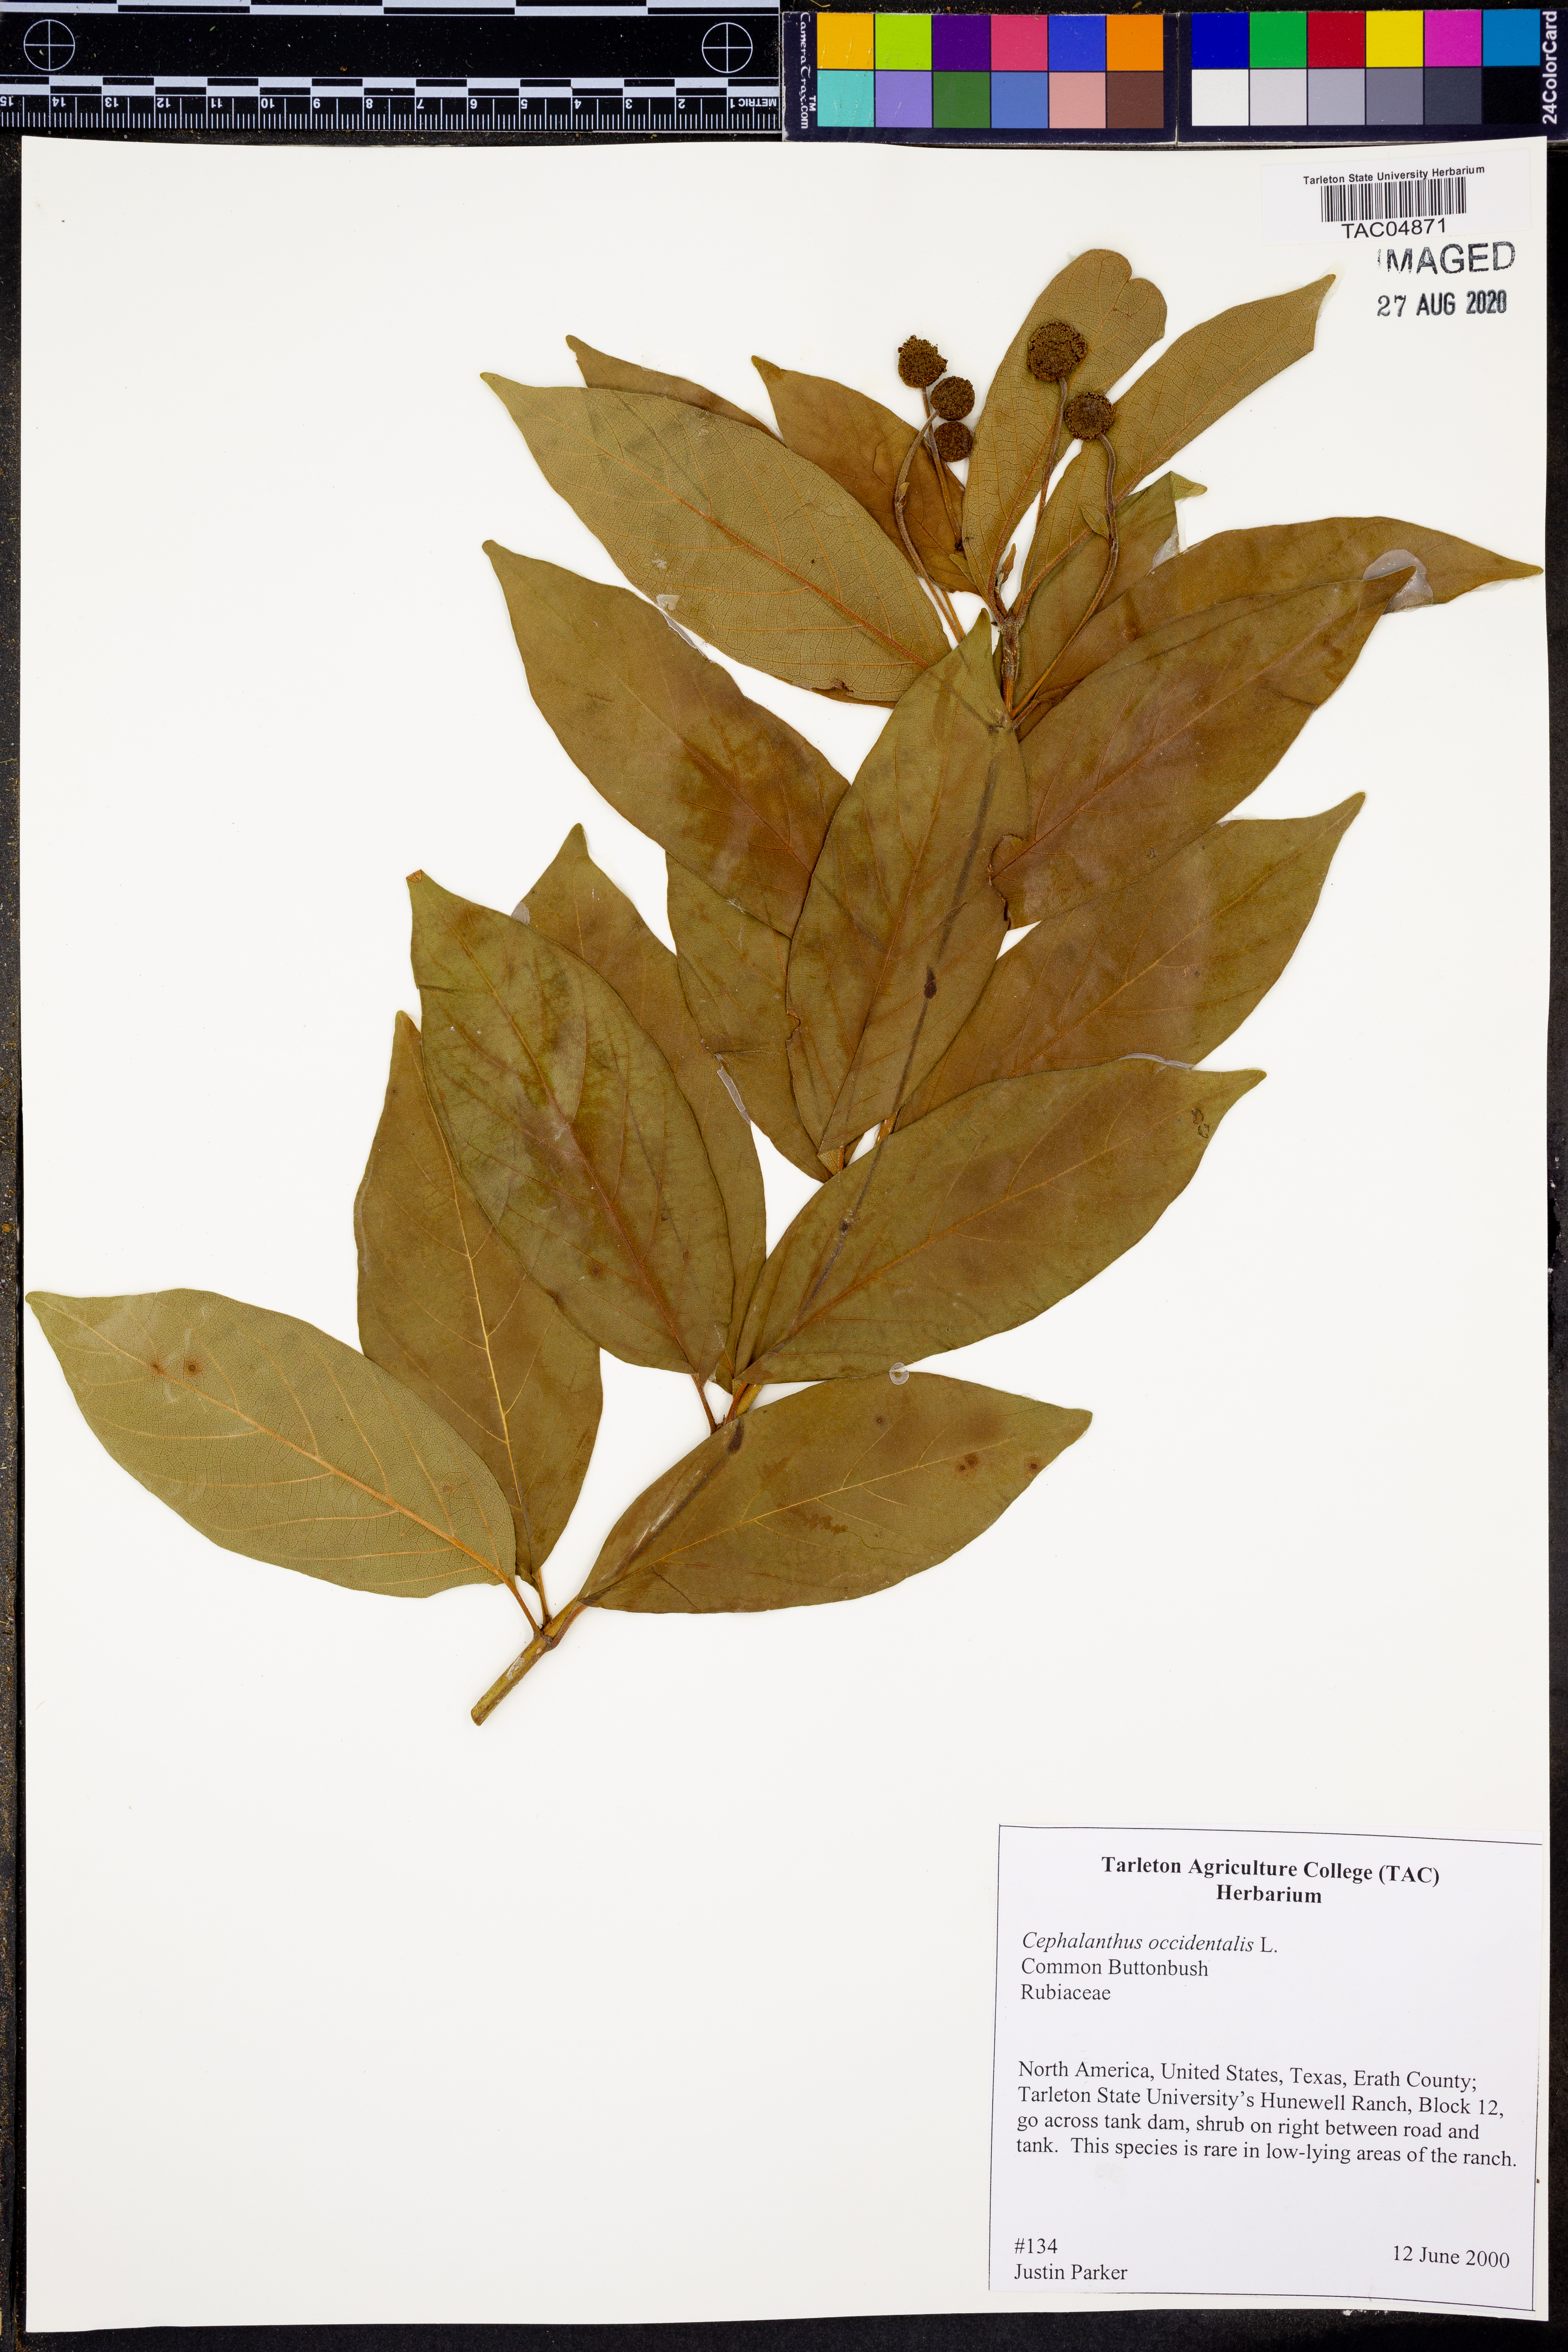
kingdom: Plantae
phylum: Tracheophyta
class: Magnoliopsida
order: Gentianales
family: Rubiaceae
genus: Cephalanthus
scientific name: Cephalanthus occidentalis
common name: Button-willow
